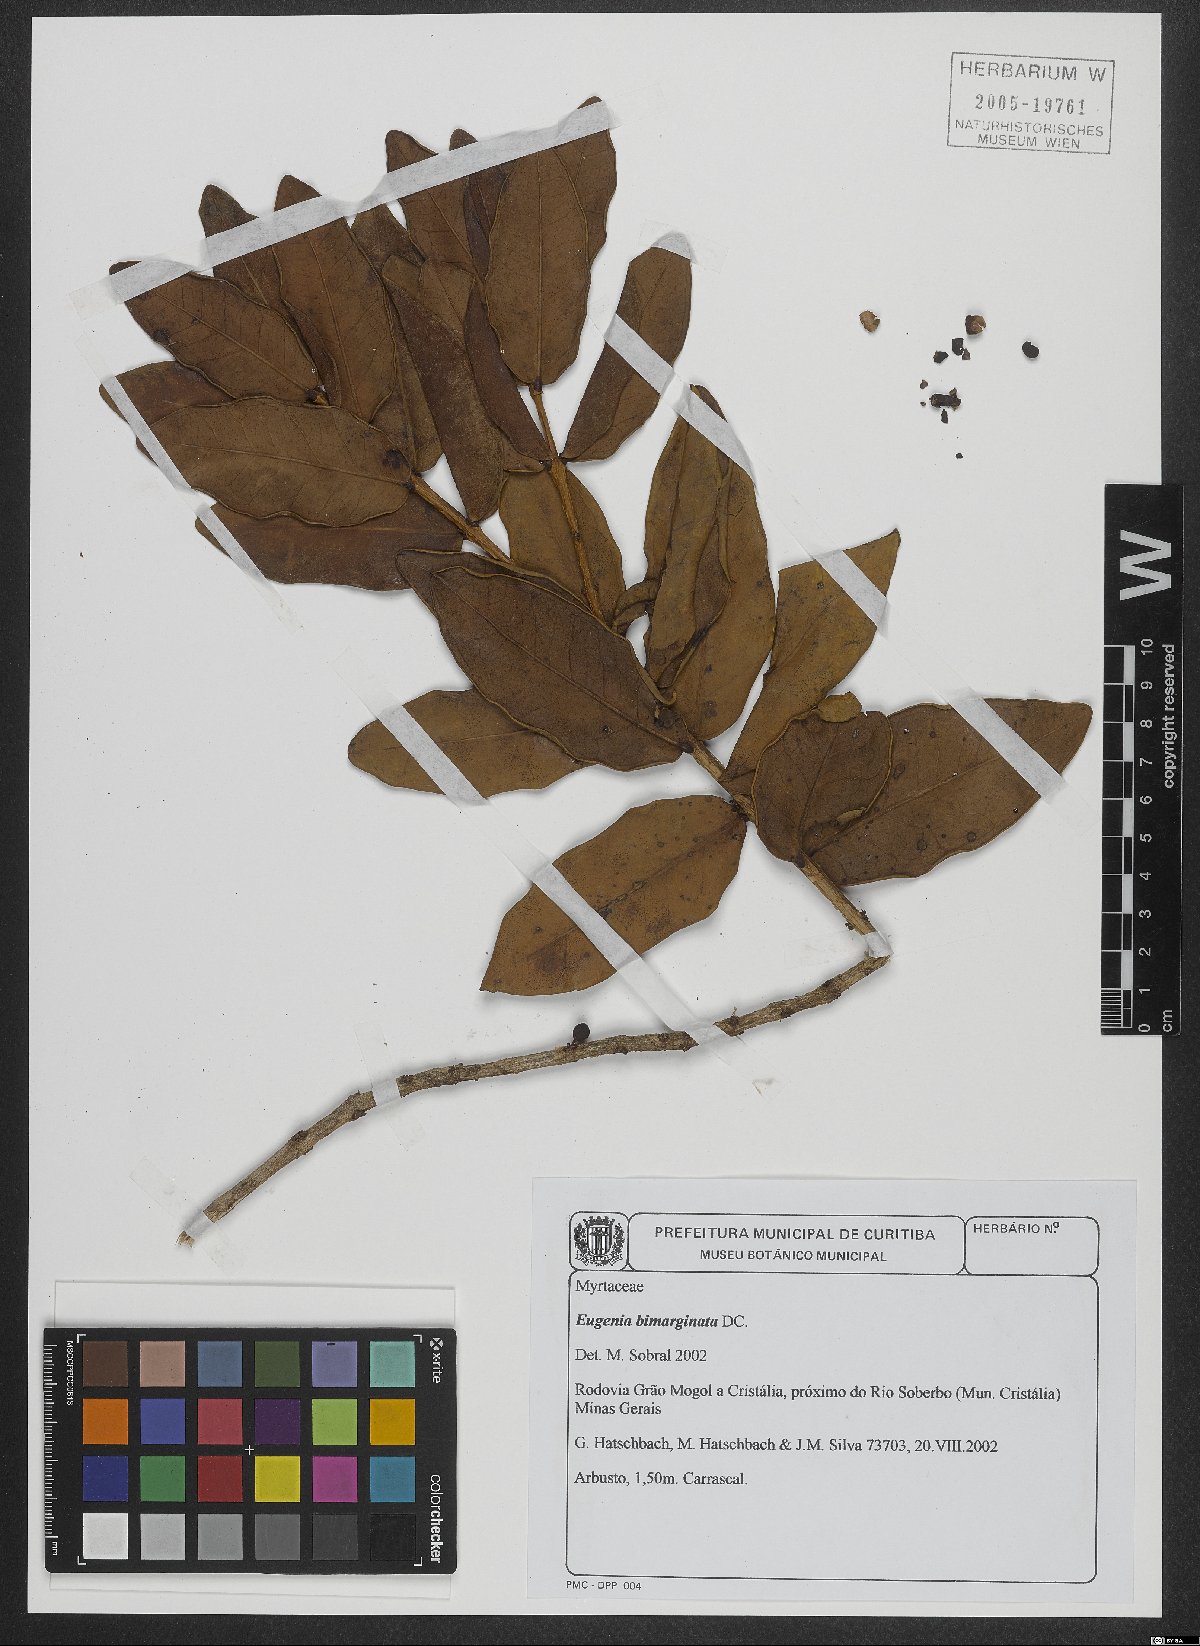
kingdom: Plantae
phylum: Tracheophyta
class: Magnoliopsida
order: Myrtales
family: Myrtaceae
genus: Eugenia
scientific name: Eugenia warmingiana
